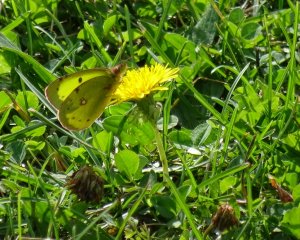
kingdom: Animalia
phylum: Arthropoda
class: Insecta
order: Lepidoptera
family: Pieridae
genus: Colias
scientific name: Colias philodice
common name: Clouded Sulphur
